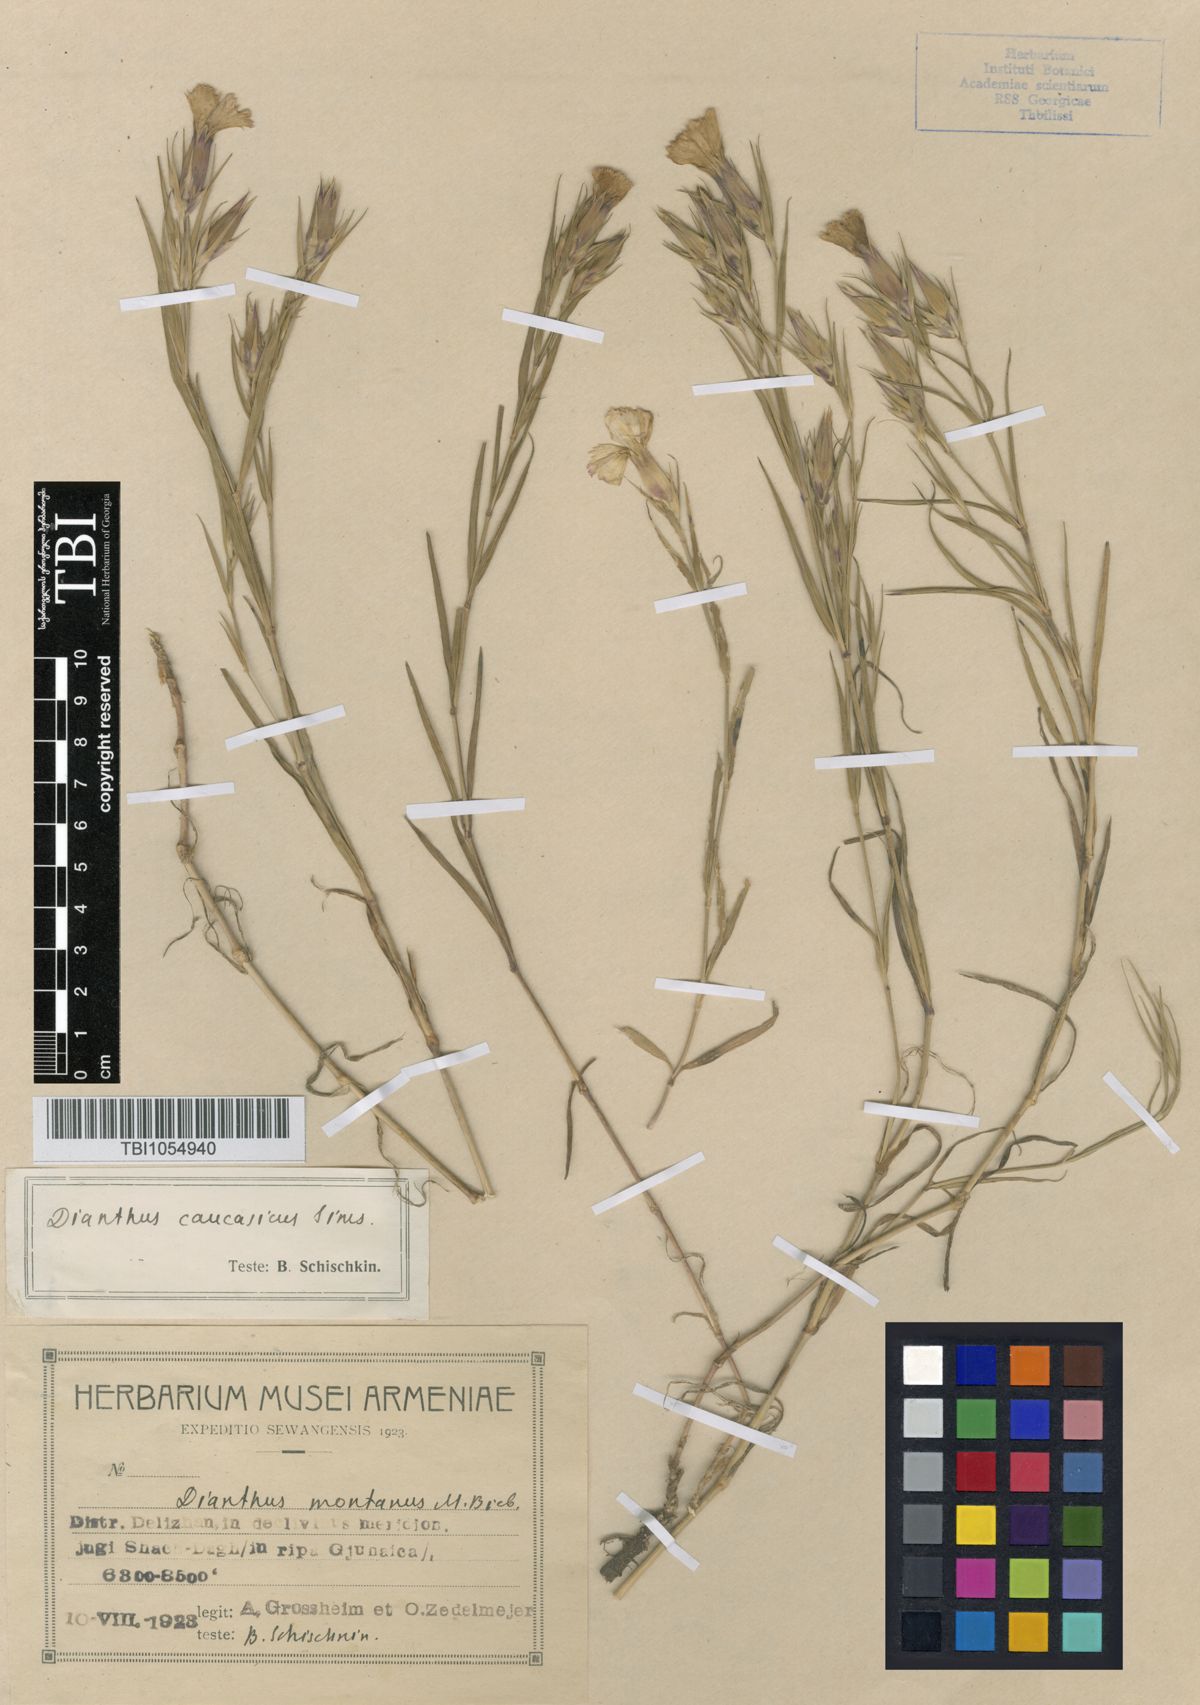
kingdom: Plantae
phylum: Tracheophyta
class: Magnoliopsida
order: Caryophyllales
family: Caryophyllaceae
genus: Dianthus
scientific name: Dianthus caucaseus
